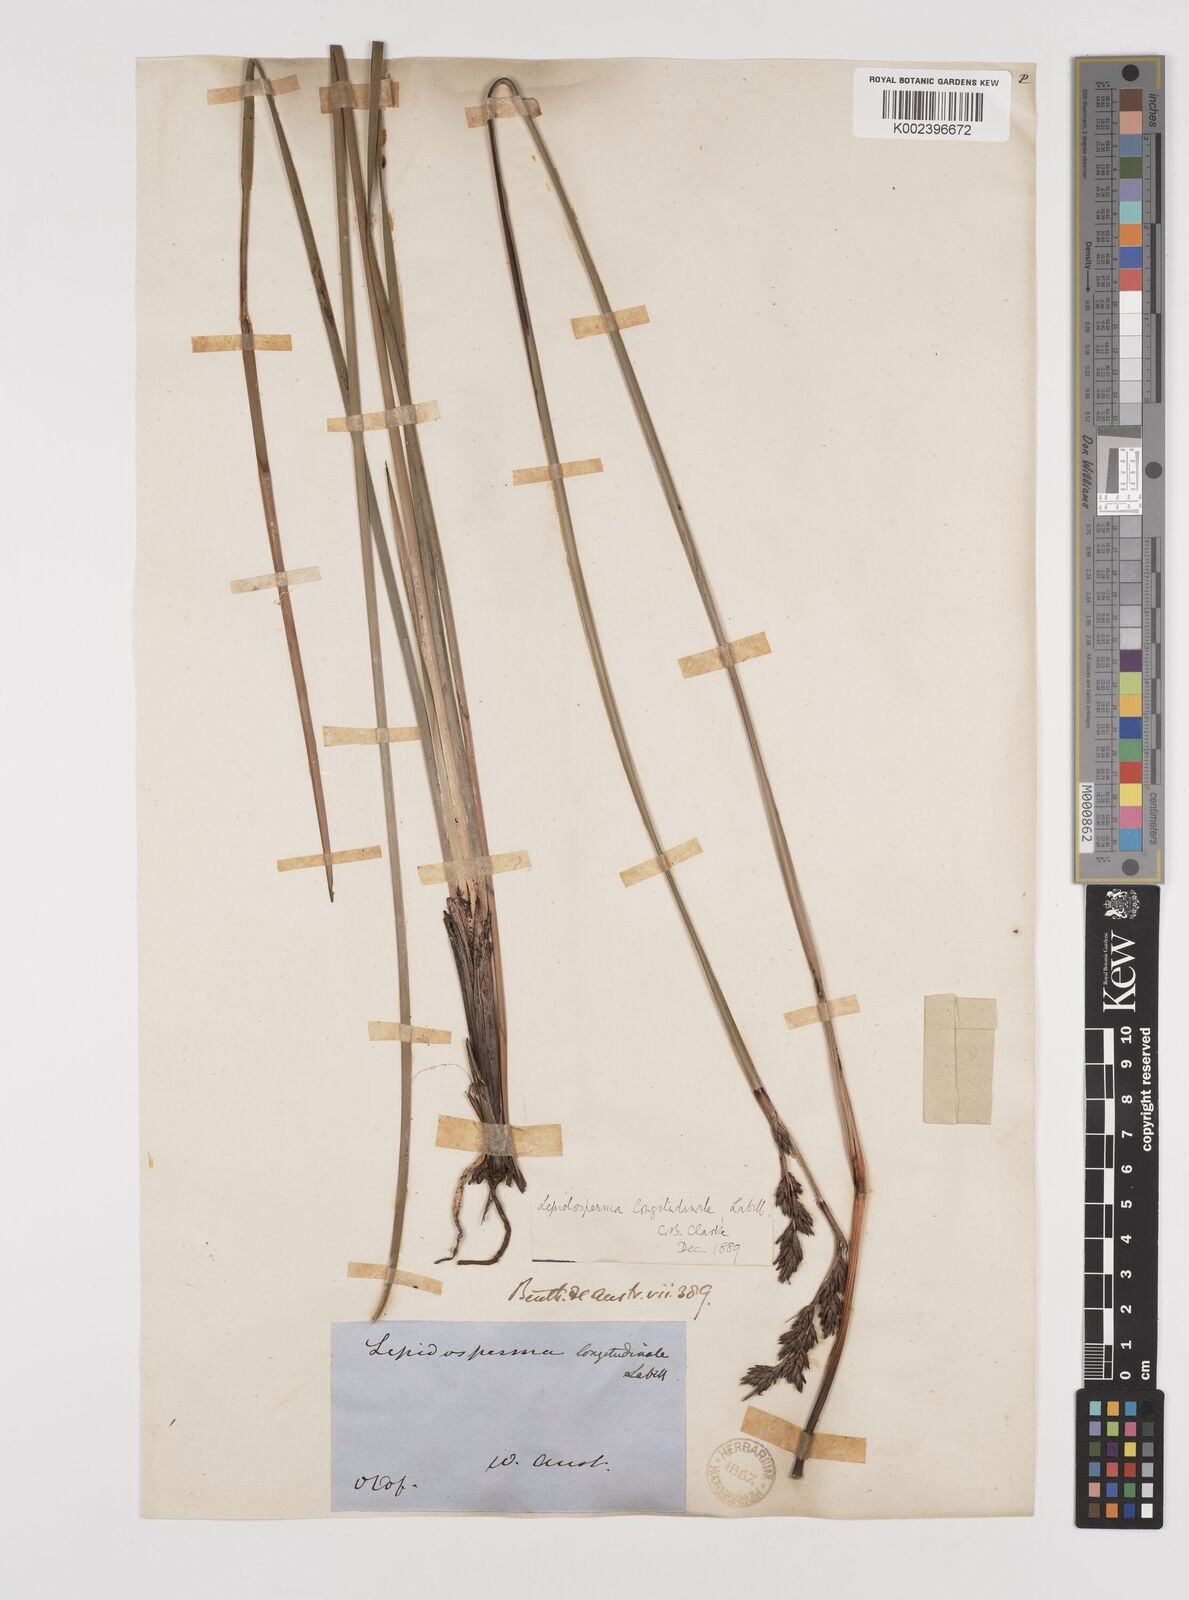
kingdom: Plantae
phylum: Tracheophyta
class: Liliopsida
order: Poales
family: Cyperaceae
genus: Lepidosperma
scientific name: Lepidosperma longitudinale
